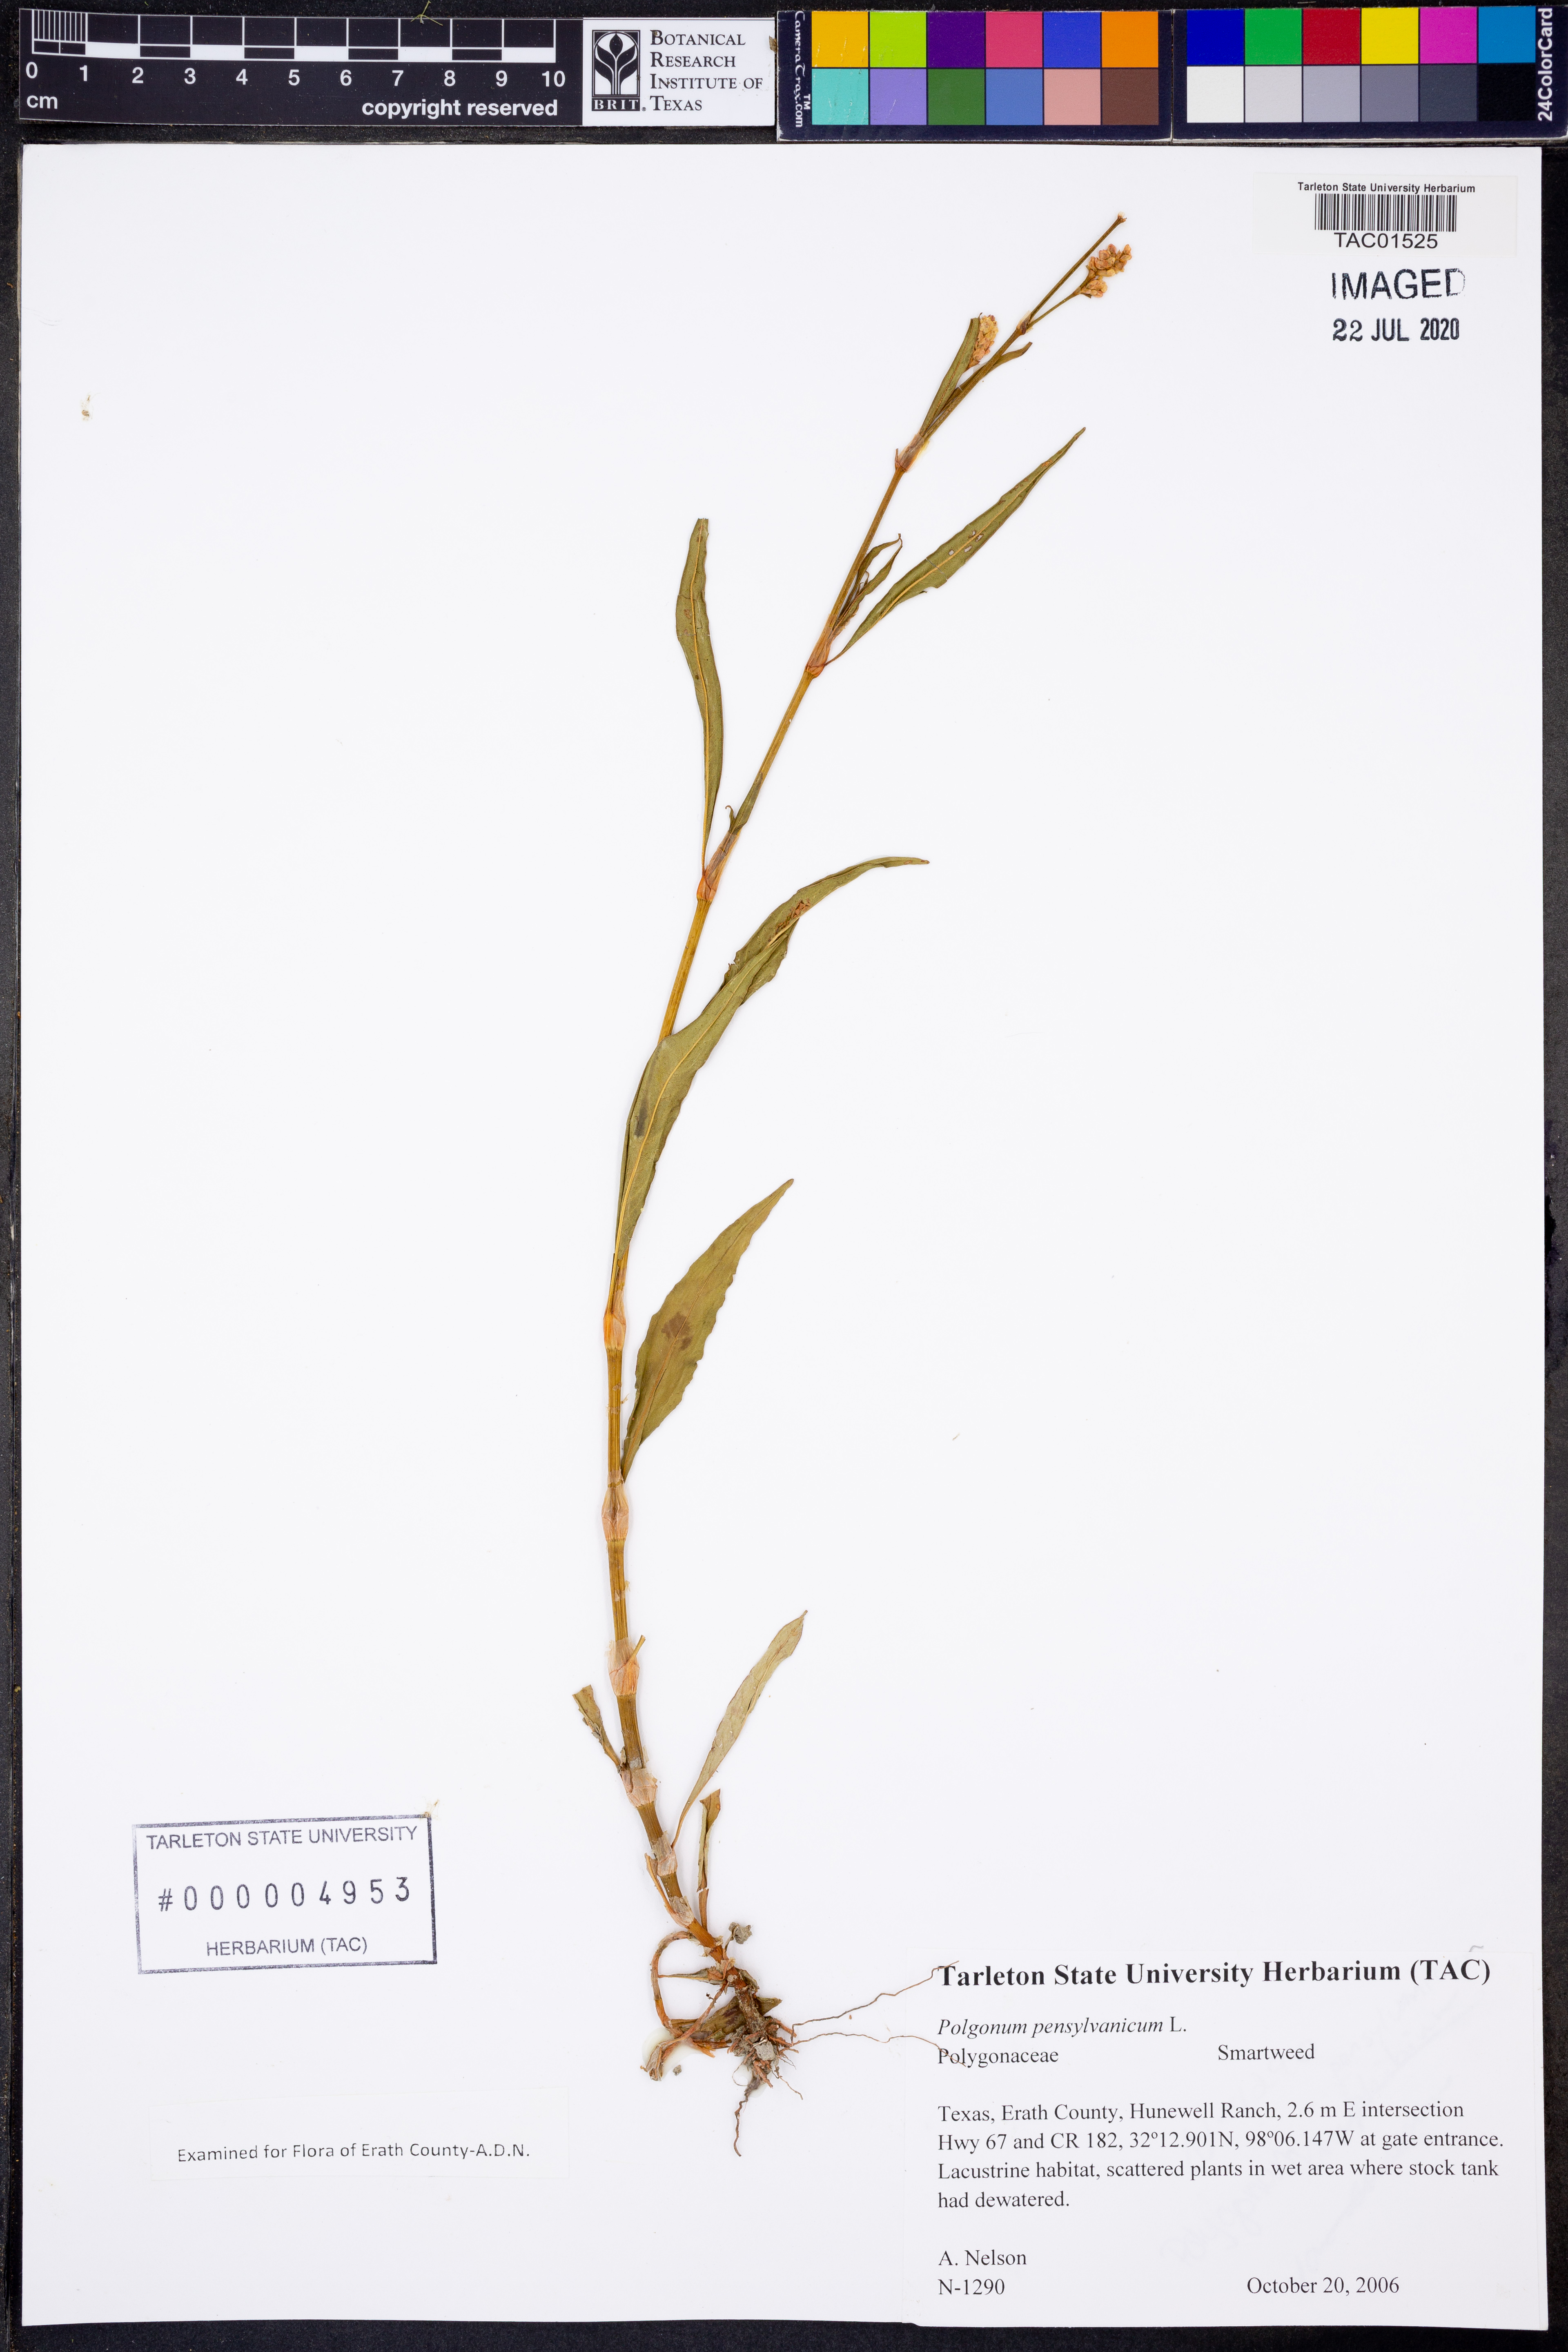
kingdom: Plantae
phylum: Tracheophyta
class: Magnoliopsida
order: Caryophyllales
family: Polygonaceae
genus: Persicaria
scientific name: Persicaria pensylvanica
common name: Pinkweed
